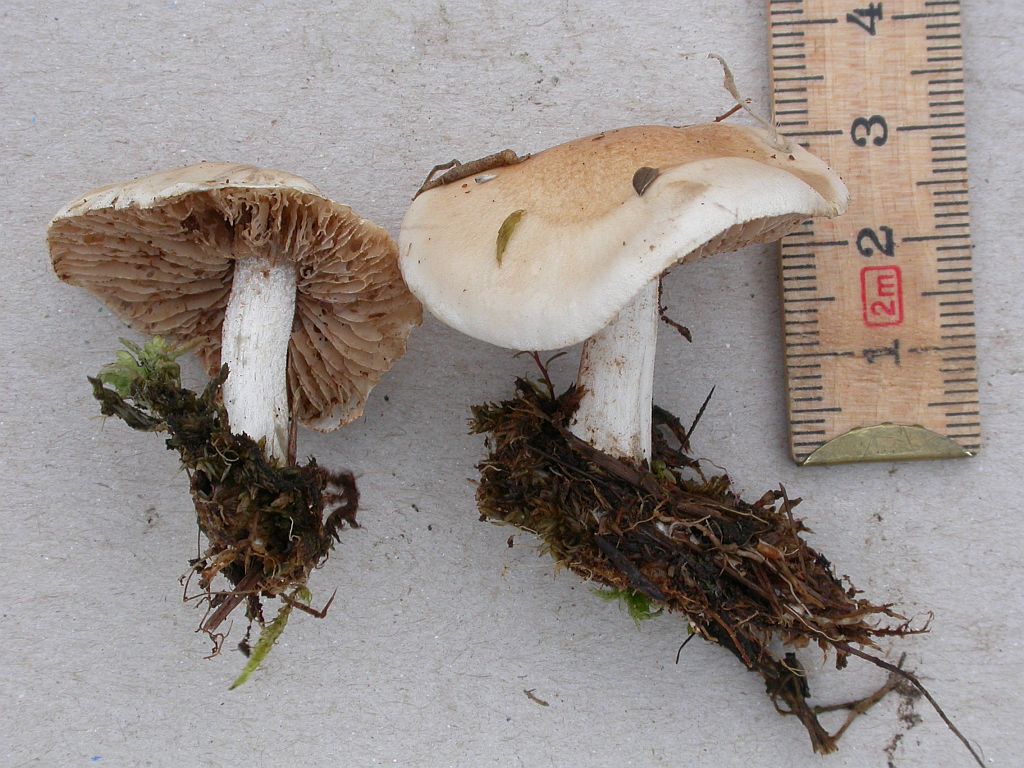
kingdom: Fungi
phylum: Basidiomycota
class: Agaricomycetes
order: Agaricales
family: Hymenogastraceae
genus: Hebeloma
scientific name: Hebeloma cavipes
